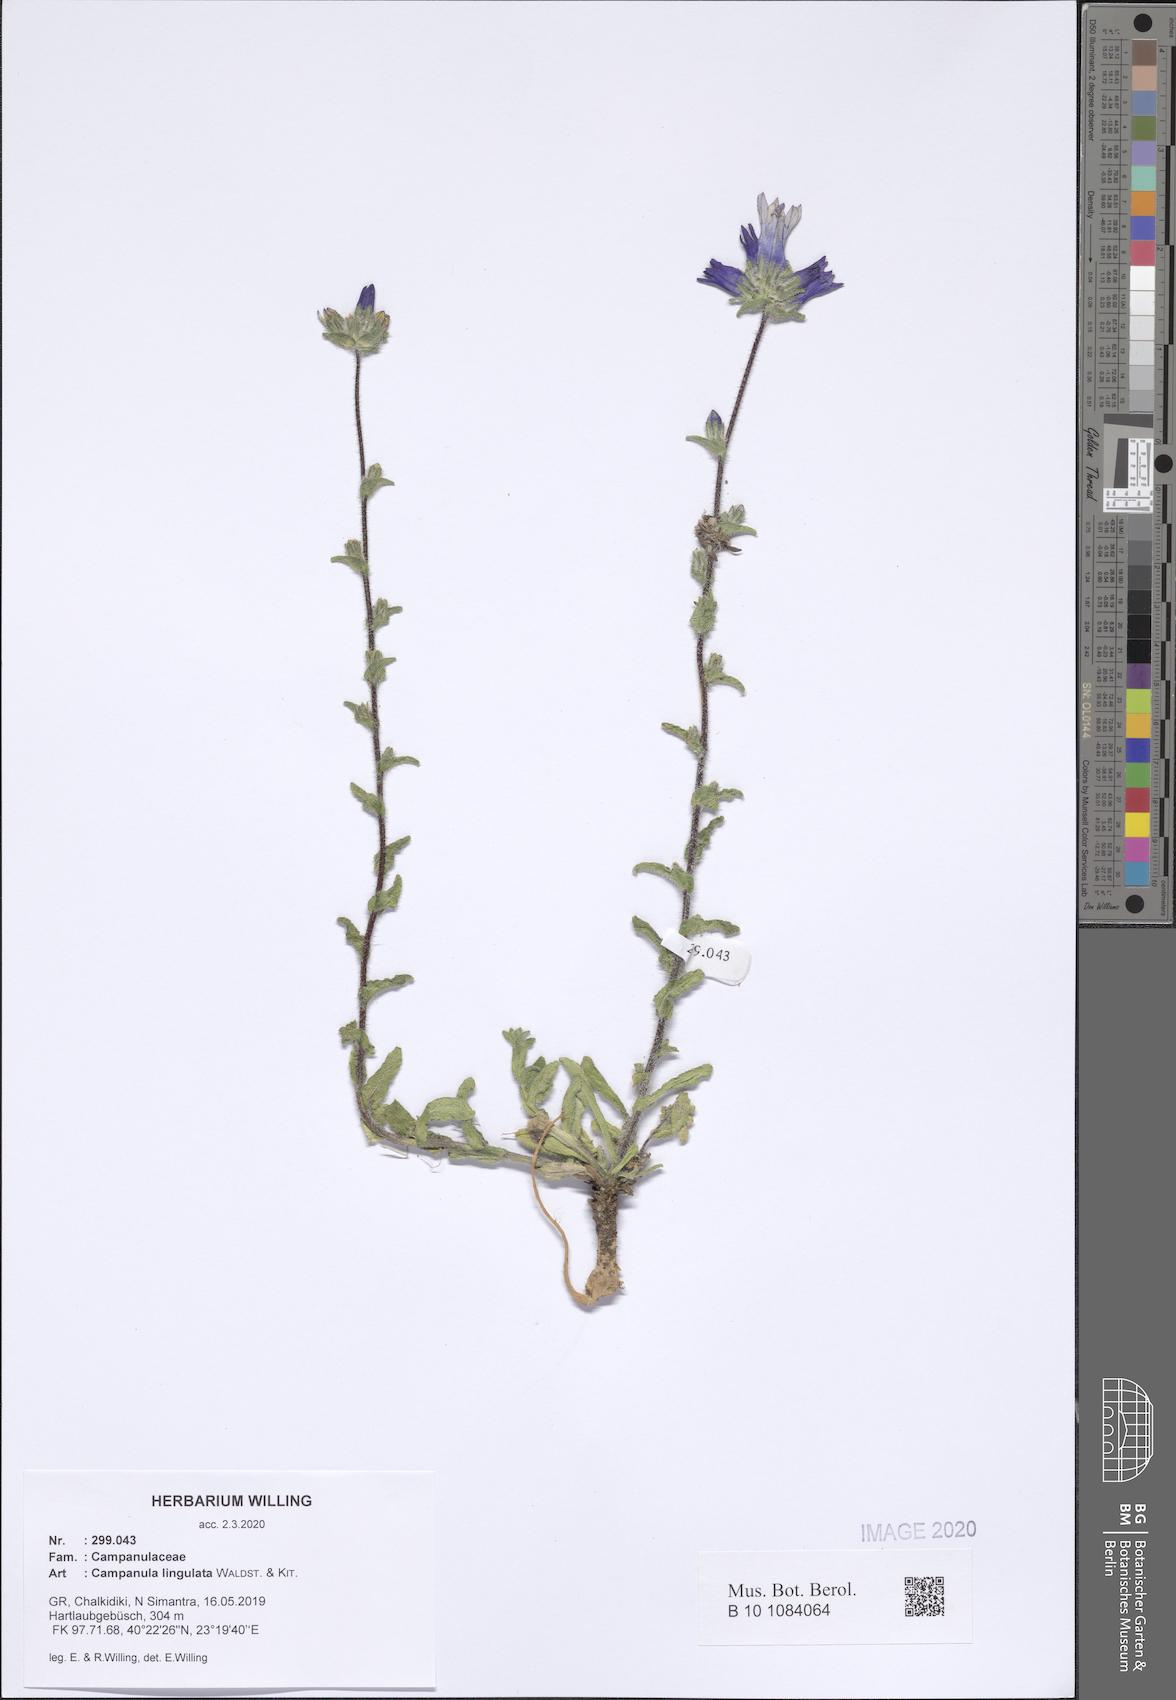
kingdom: Plantae
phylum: Tracheophyta
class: Magnoliopsida
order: Asterales
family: Campanulaceae
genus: Campanula
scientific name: Campanula lingulata
